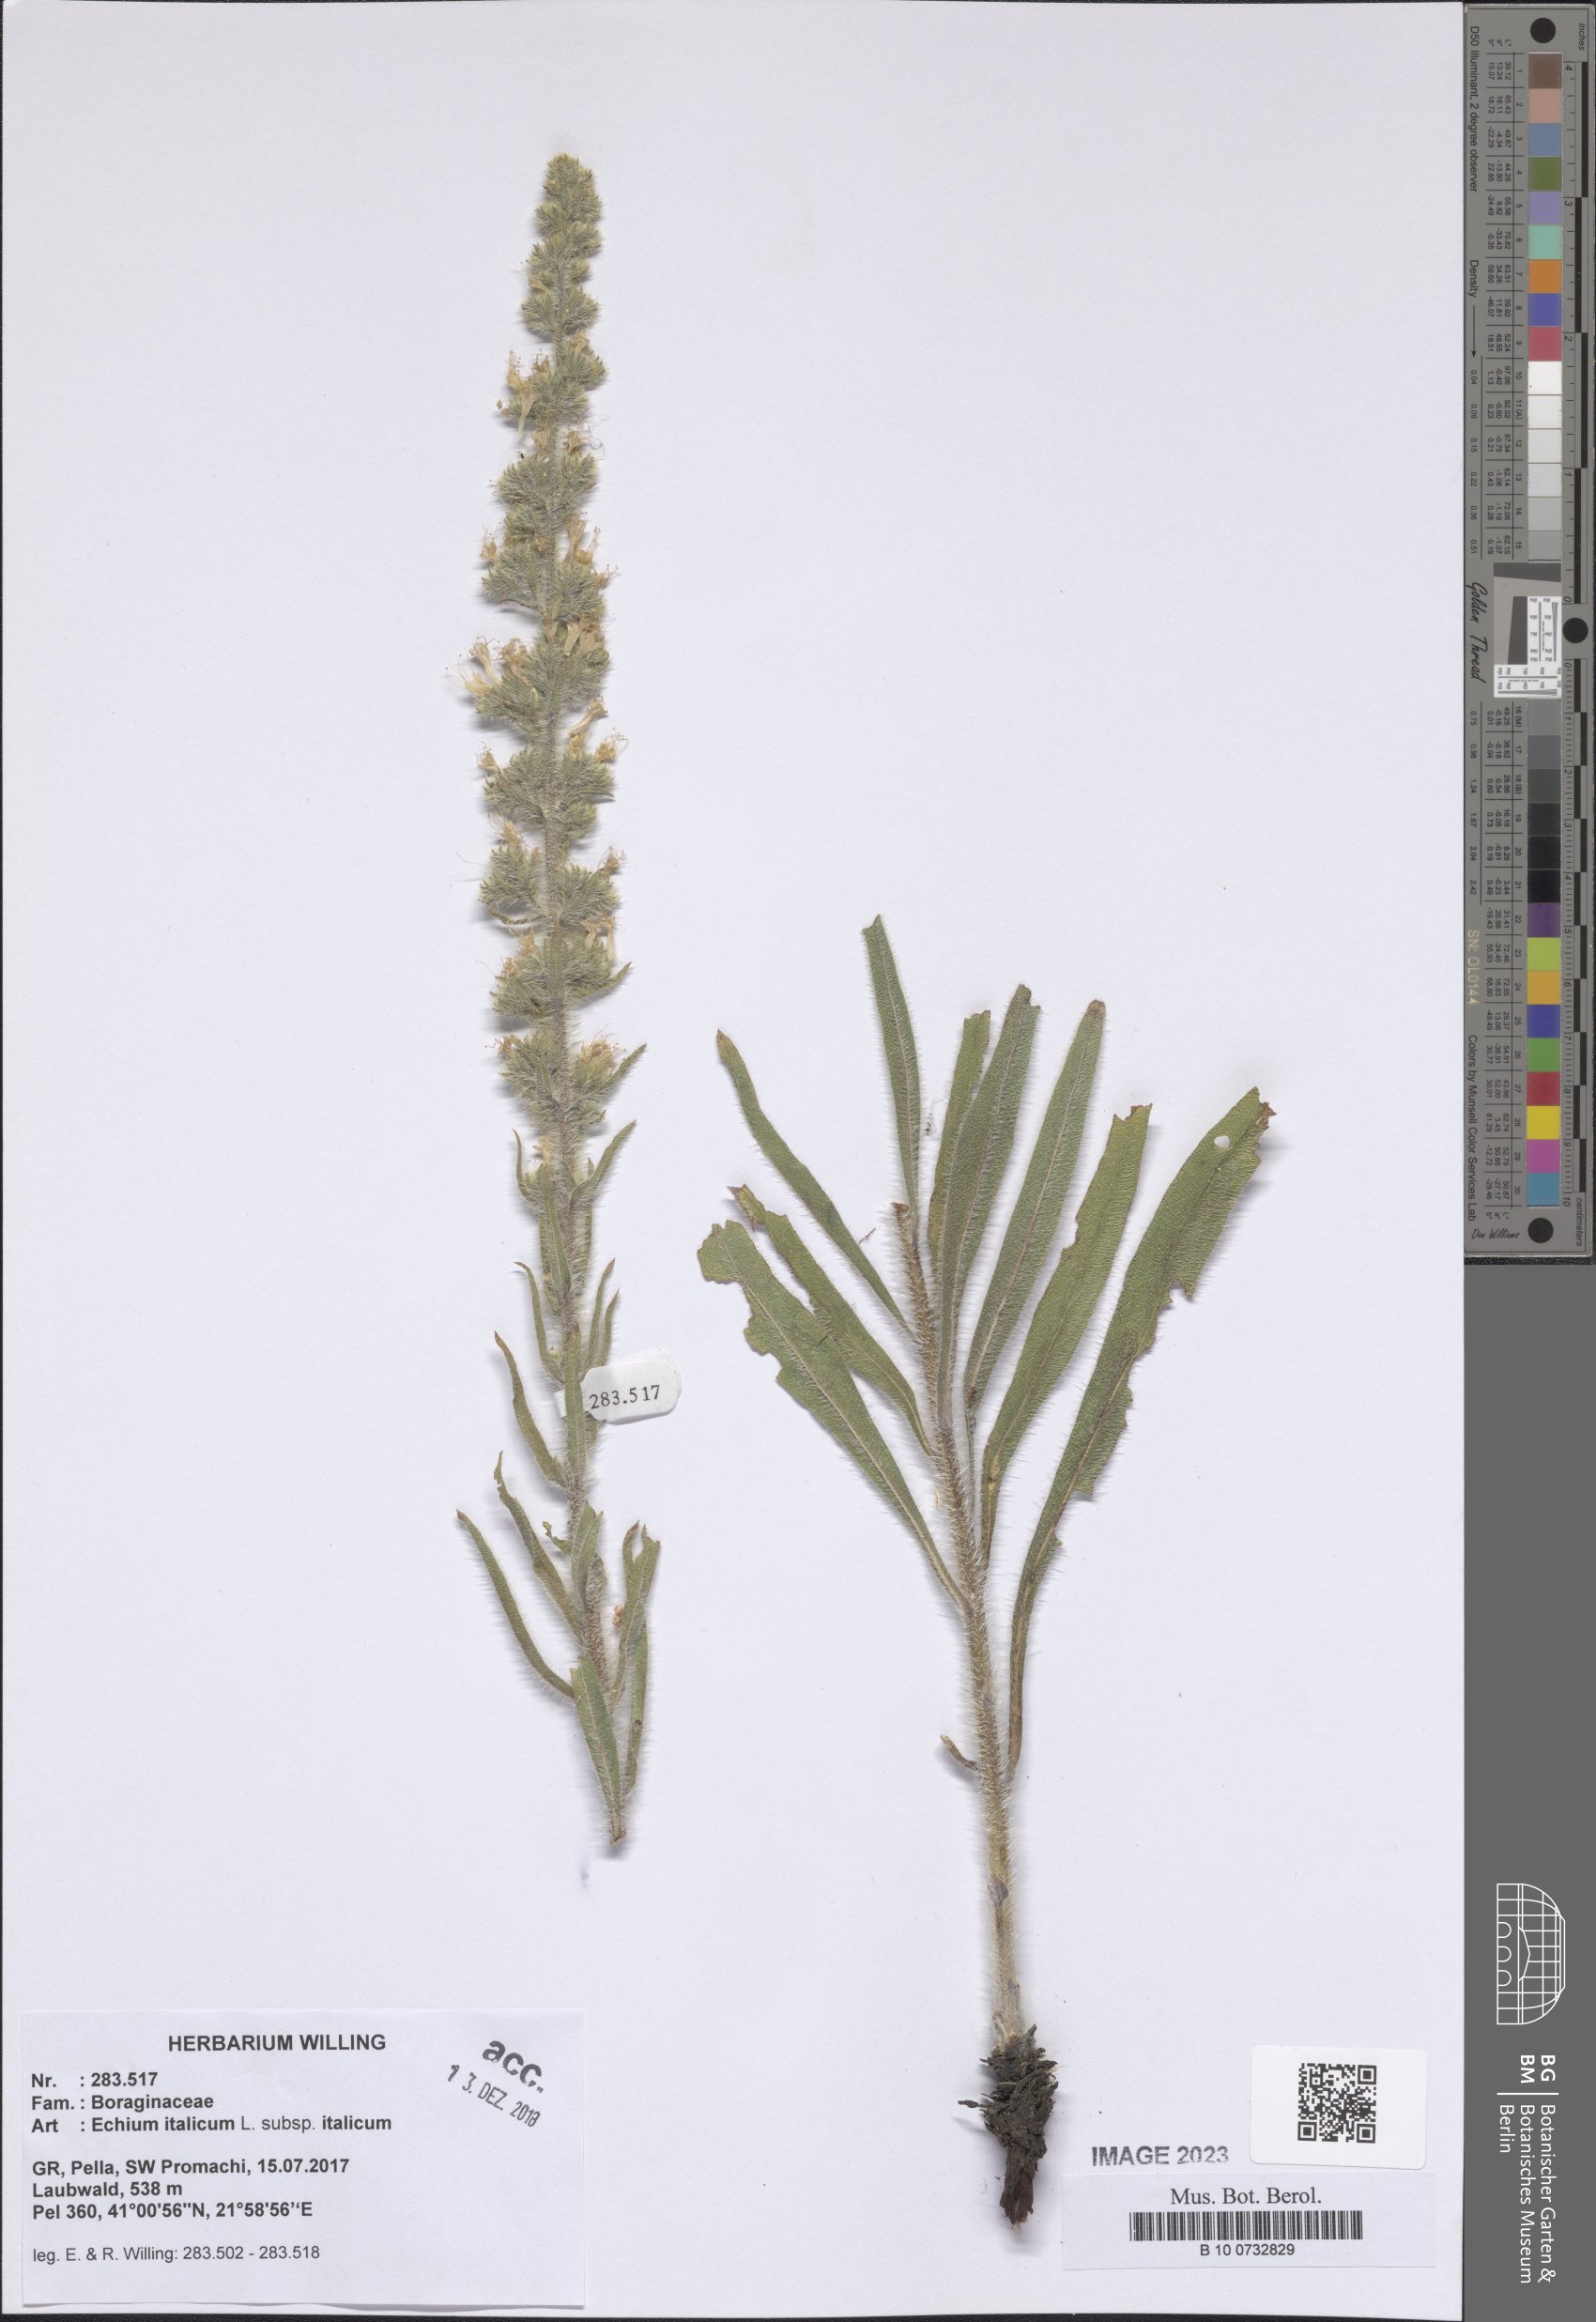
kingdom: Plantae
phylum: Tracheophyta
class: Magnoliopsida
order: Boraginales
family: Boraginaceae
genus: Echium
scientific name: Echium italicum
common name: Italian viper's bugloss
